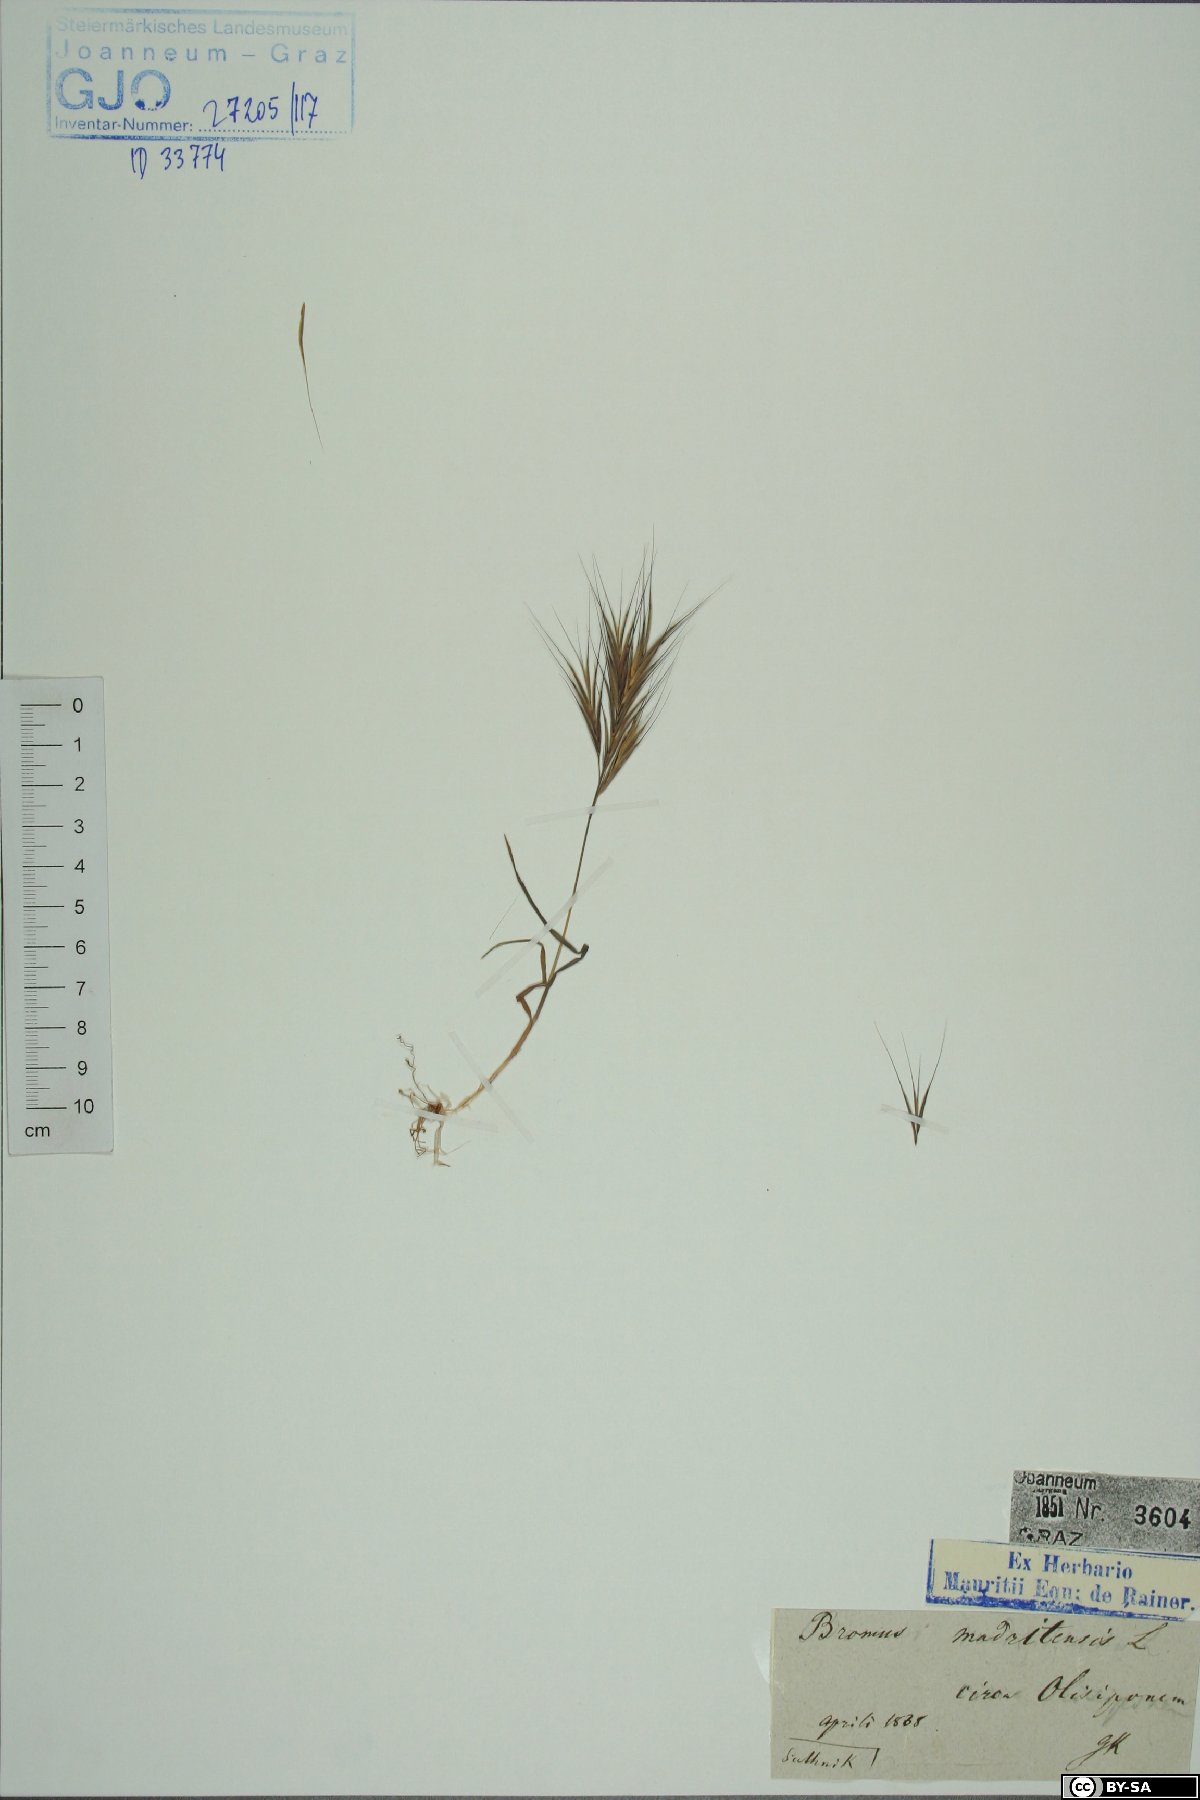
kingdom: Plantae
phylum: Tracheophyta
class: Liliopsida
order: Poales
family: Poaceae
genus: Bromus
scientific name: Bromus madritensis
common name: Compact brome
